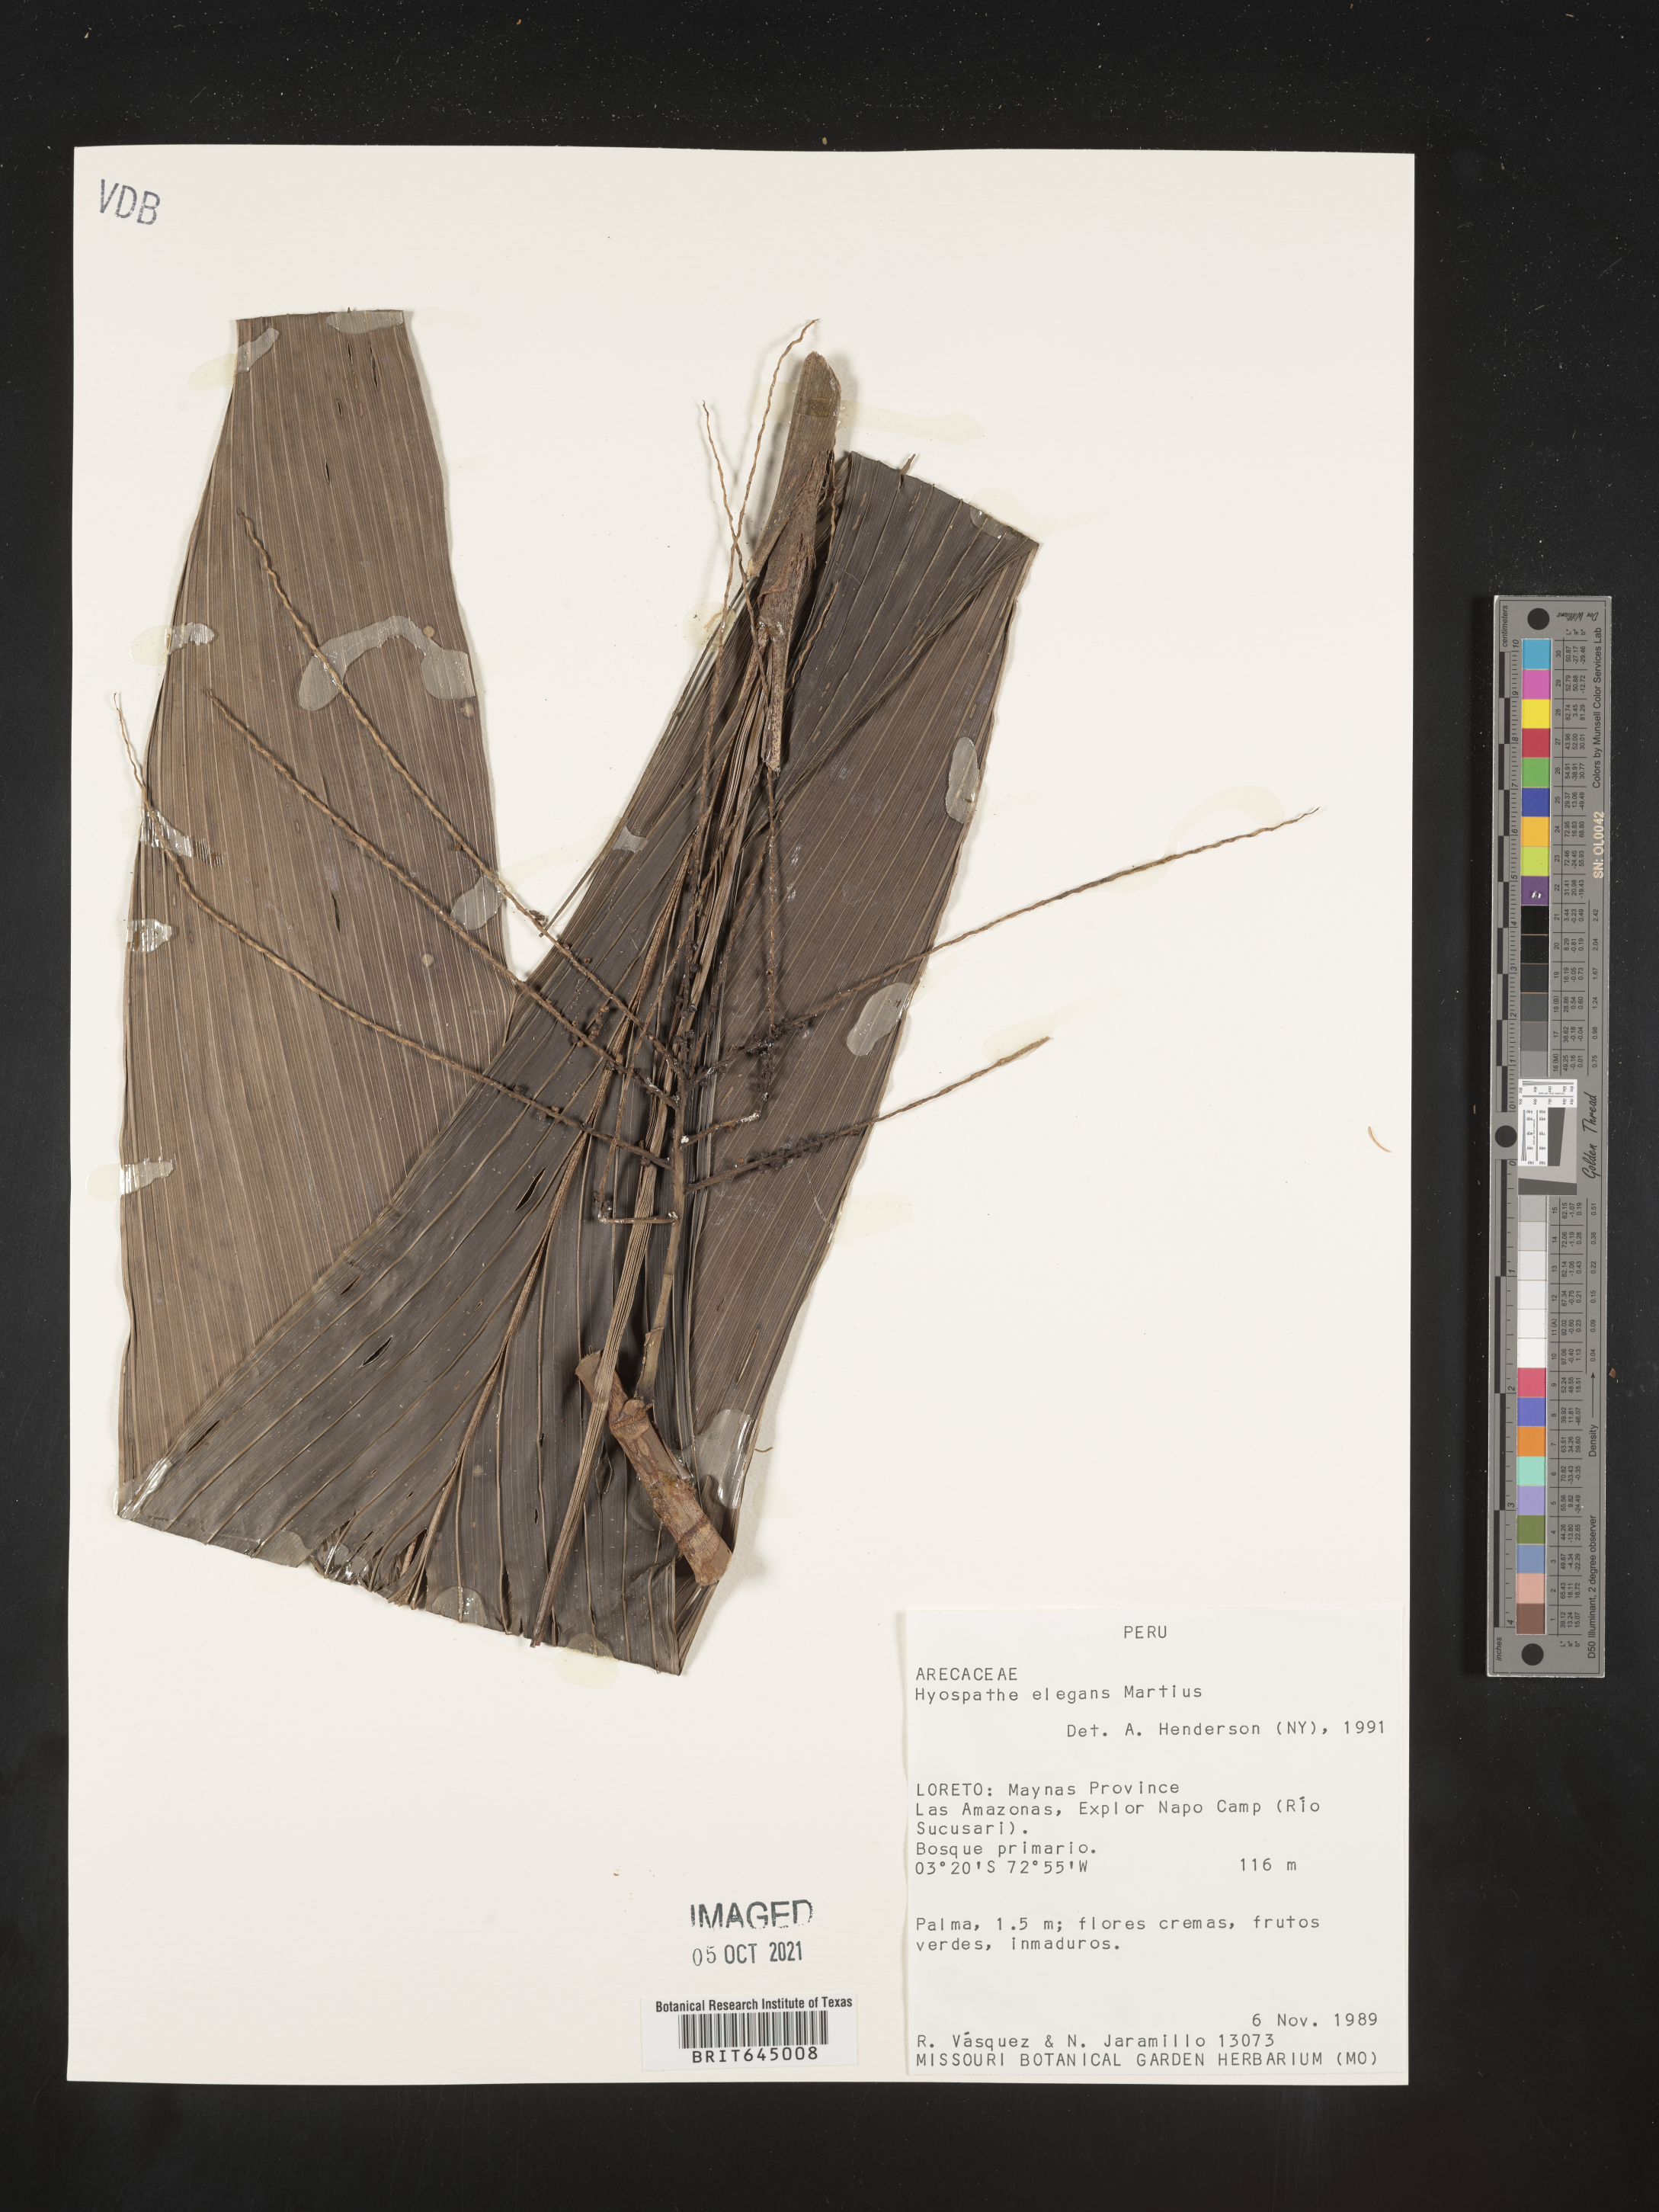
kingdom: Plantae
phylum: Tracheophyta
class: Liliopsida
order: Arecales
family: Arecaceae
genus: Hyospathe
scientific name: Hyospathe elegans
